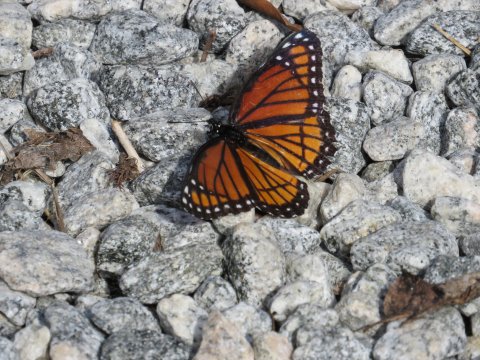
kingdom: Animalia
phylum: Arthropoda
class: Insecta
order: Lepidoptera
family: Nymphalidae
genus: Limenitis
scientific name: Limenitis archippus
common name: Viceroy
